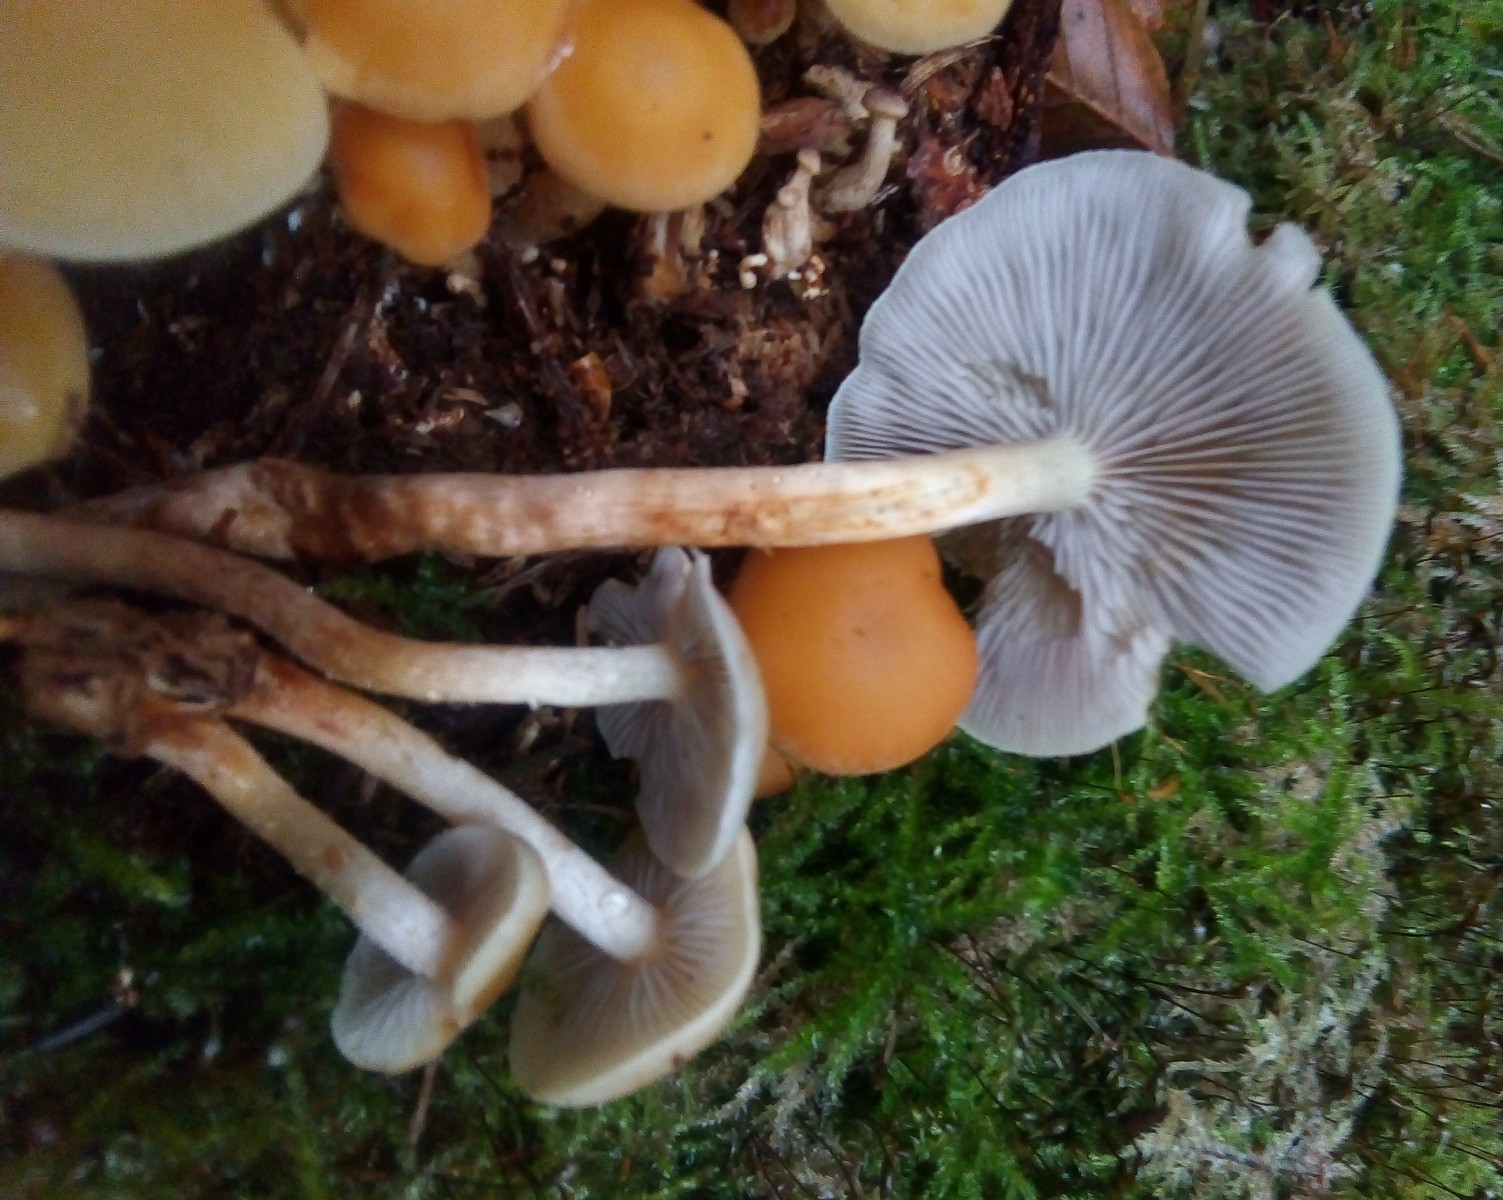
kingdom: Fungi
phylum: Basidiomycota
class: Agaricomycetes
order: Agaricales
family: Strophariaceae
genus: Hypholoma
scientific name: Hypholoma capnoides
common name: gran-svovlhat
